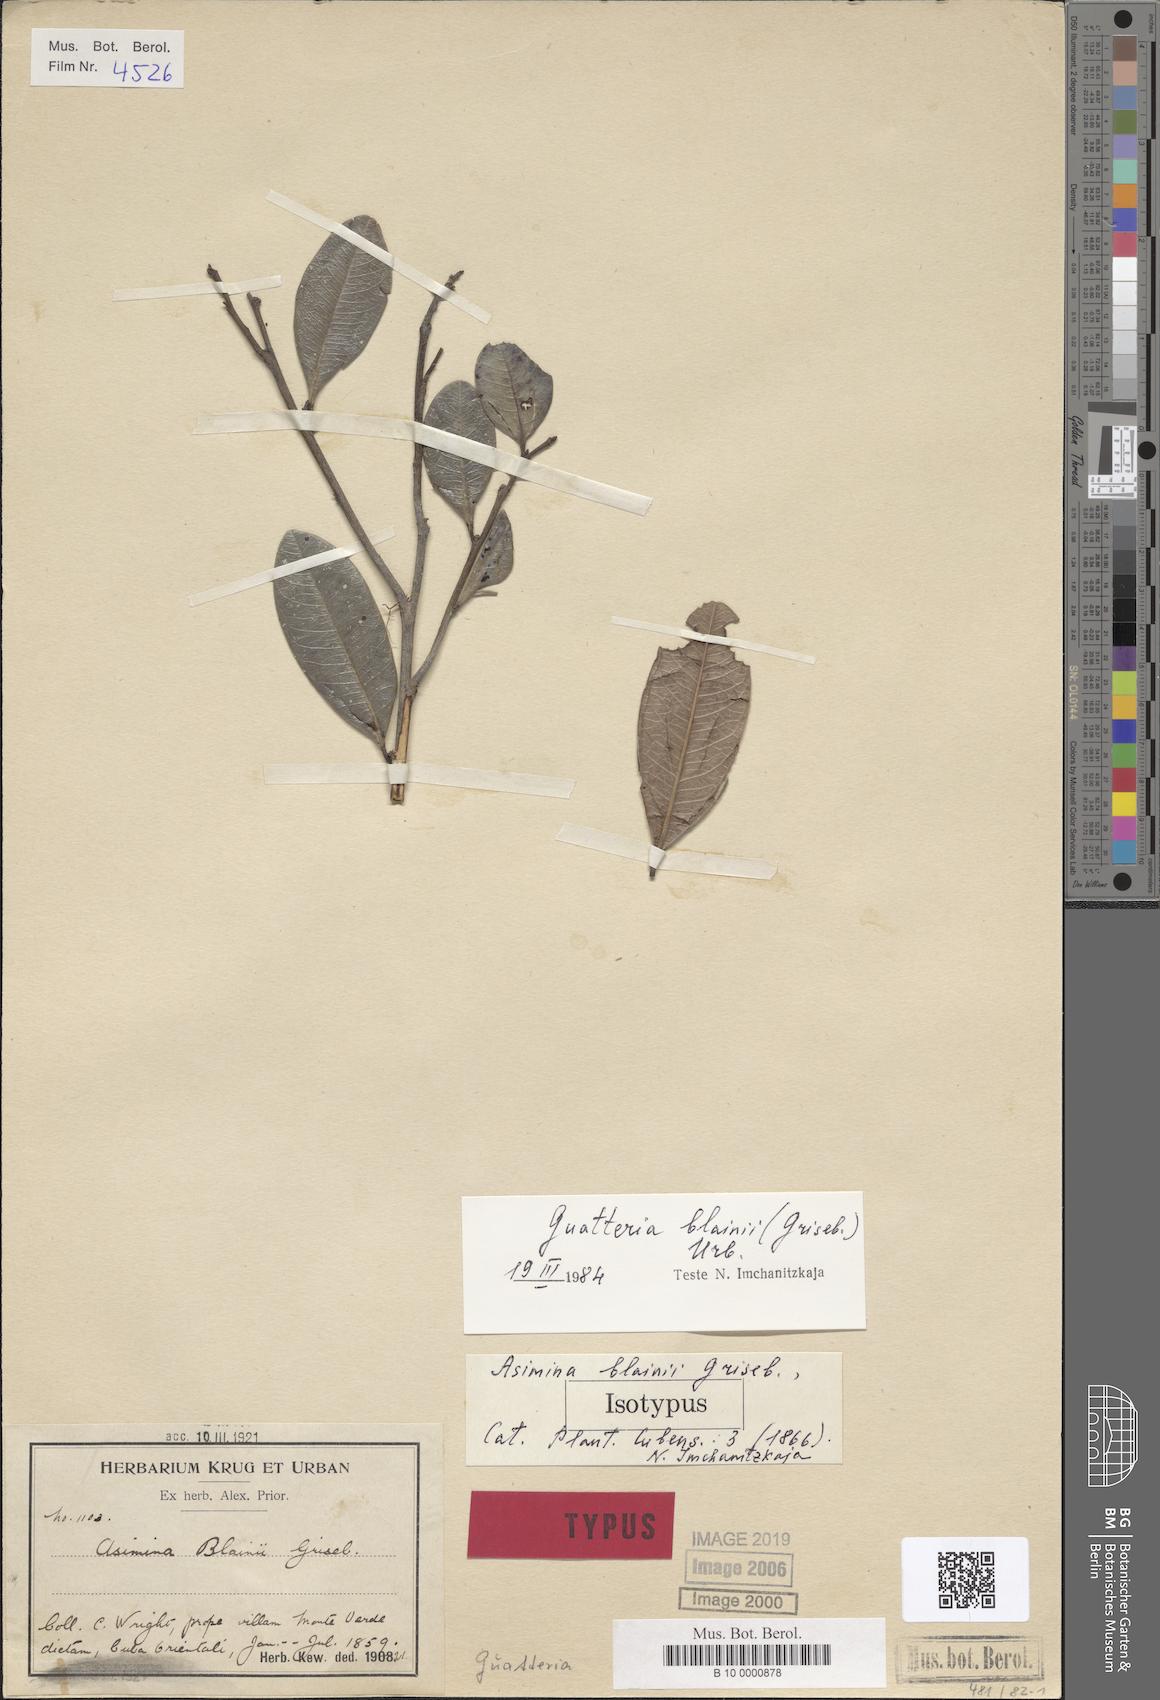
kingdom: Plantae
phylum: Tracheophyta
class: Magnoliopsida
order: Magnoliales
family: Annonaceae
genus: Guatteria
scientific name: Guatteria blainii
